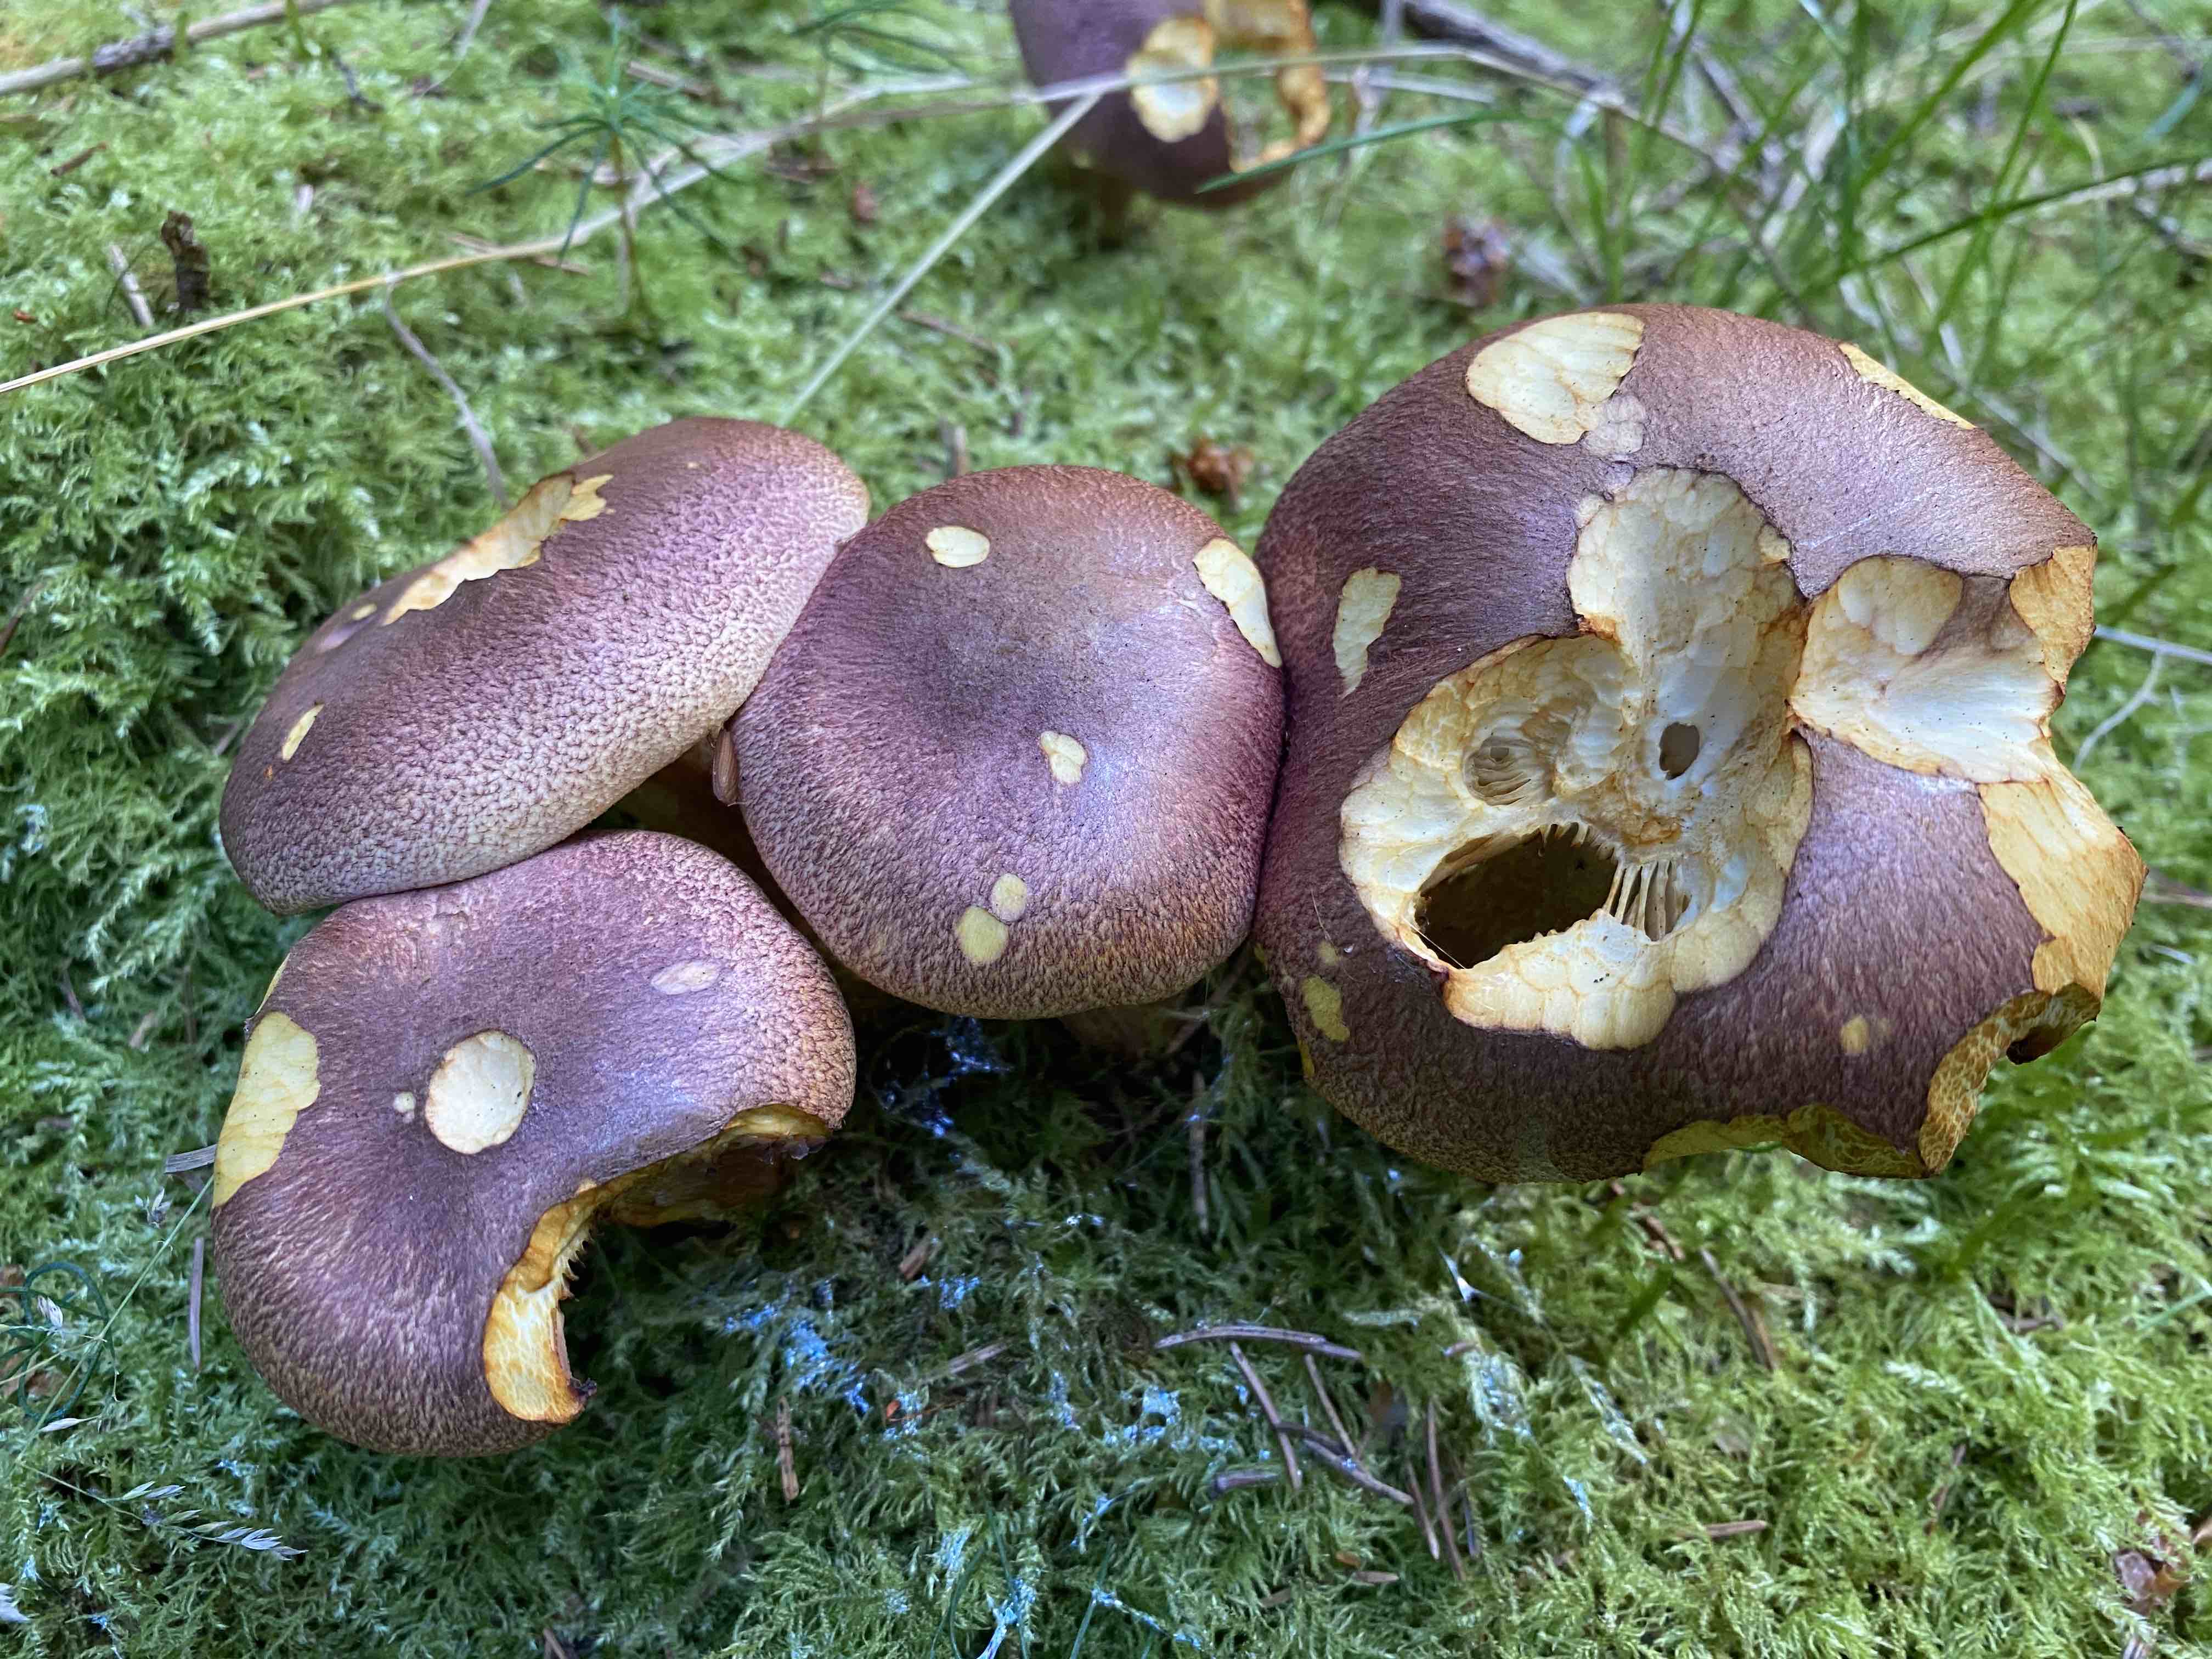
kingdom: Fungi
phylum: Basidiomycota
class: Agaricomycetes
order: Agaricales
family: Tricholomataceae
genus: Tricholomopsis
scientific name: Tricholomopsis rutilans
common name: purpur-væbnerhat
